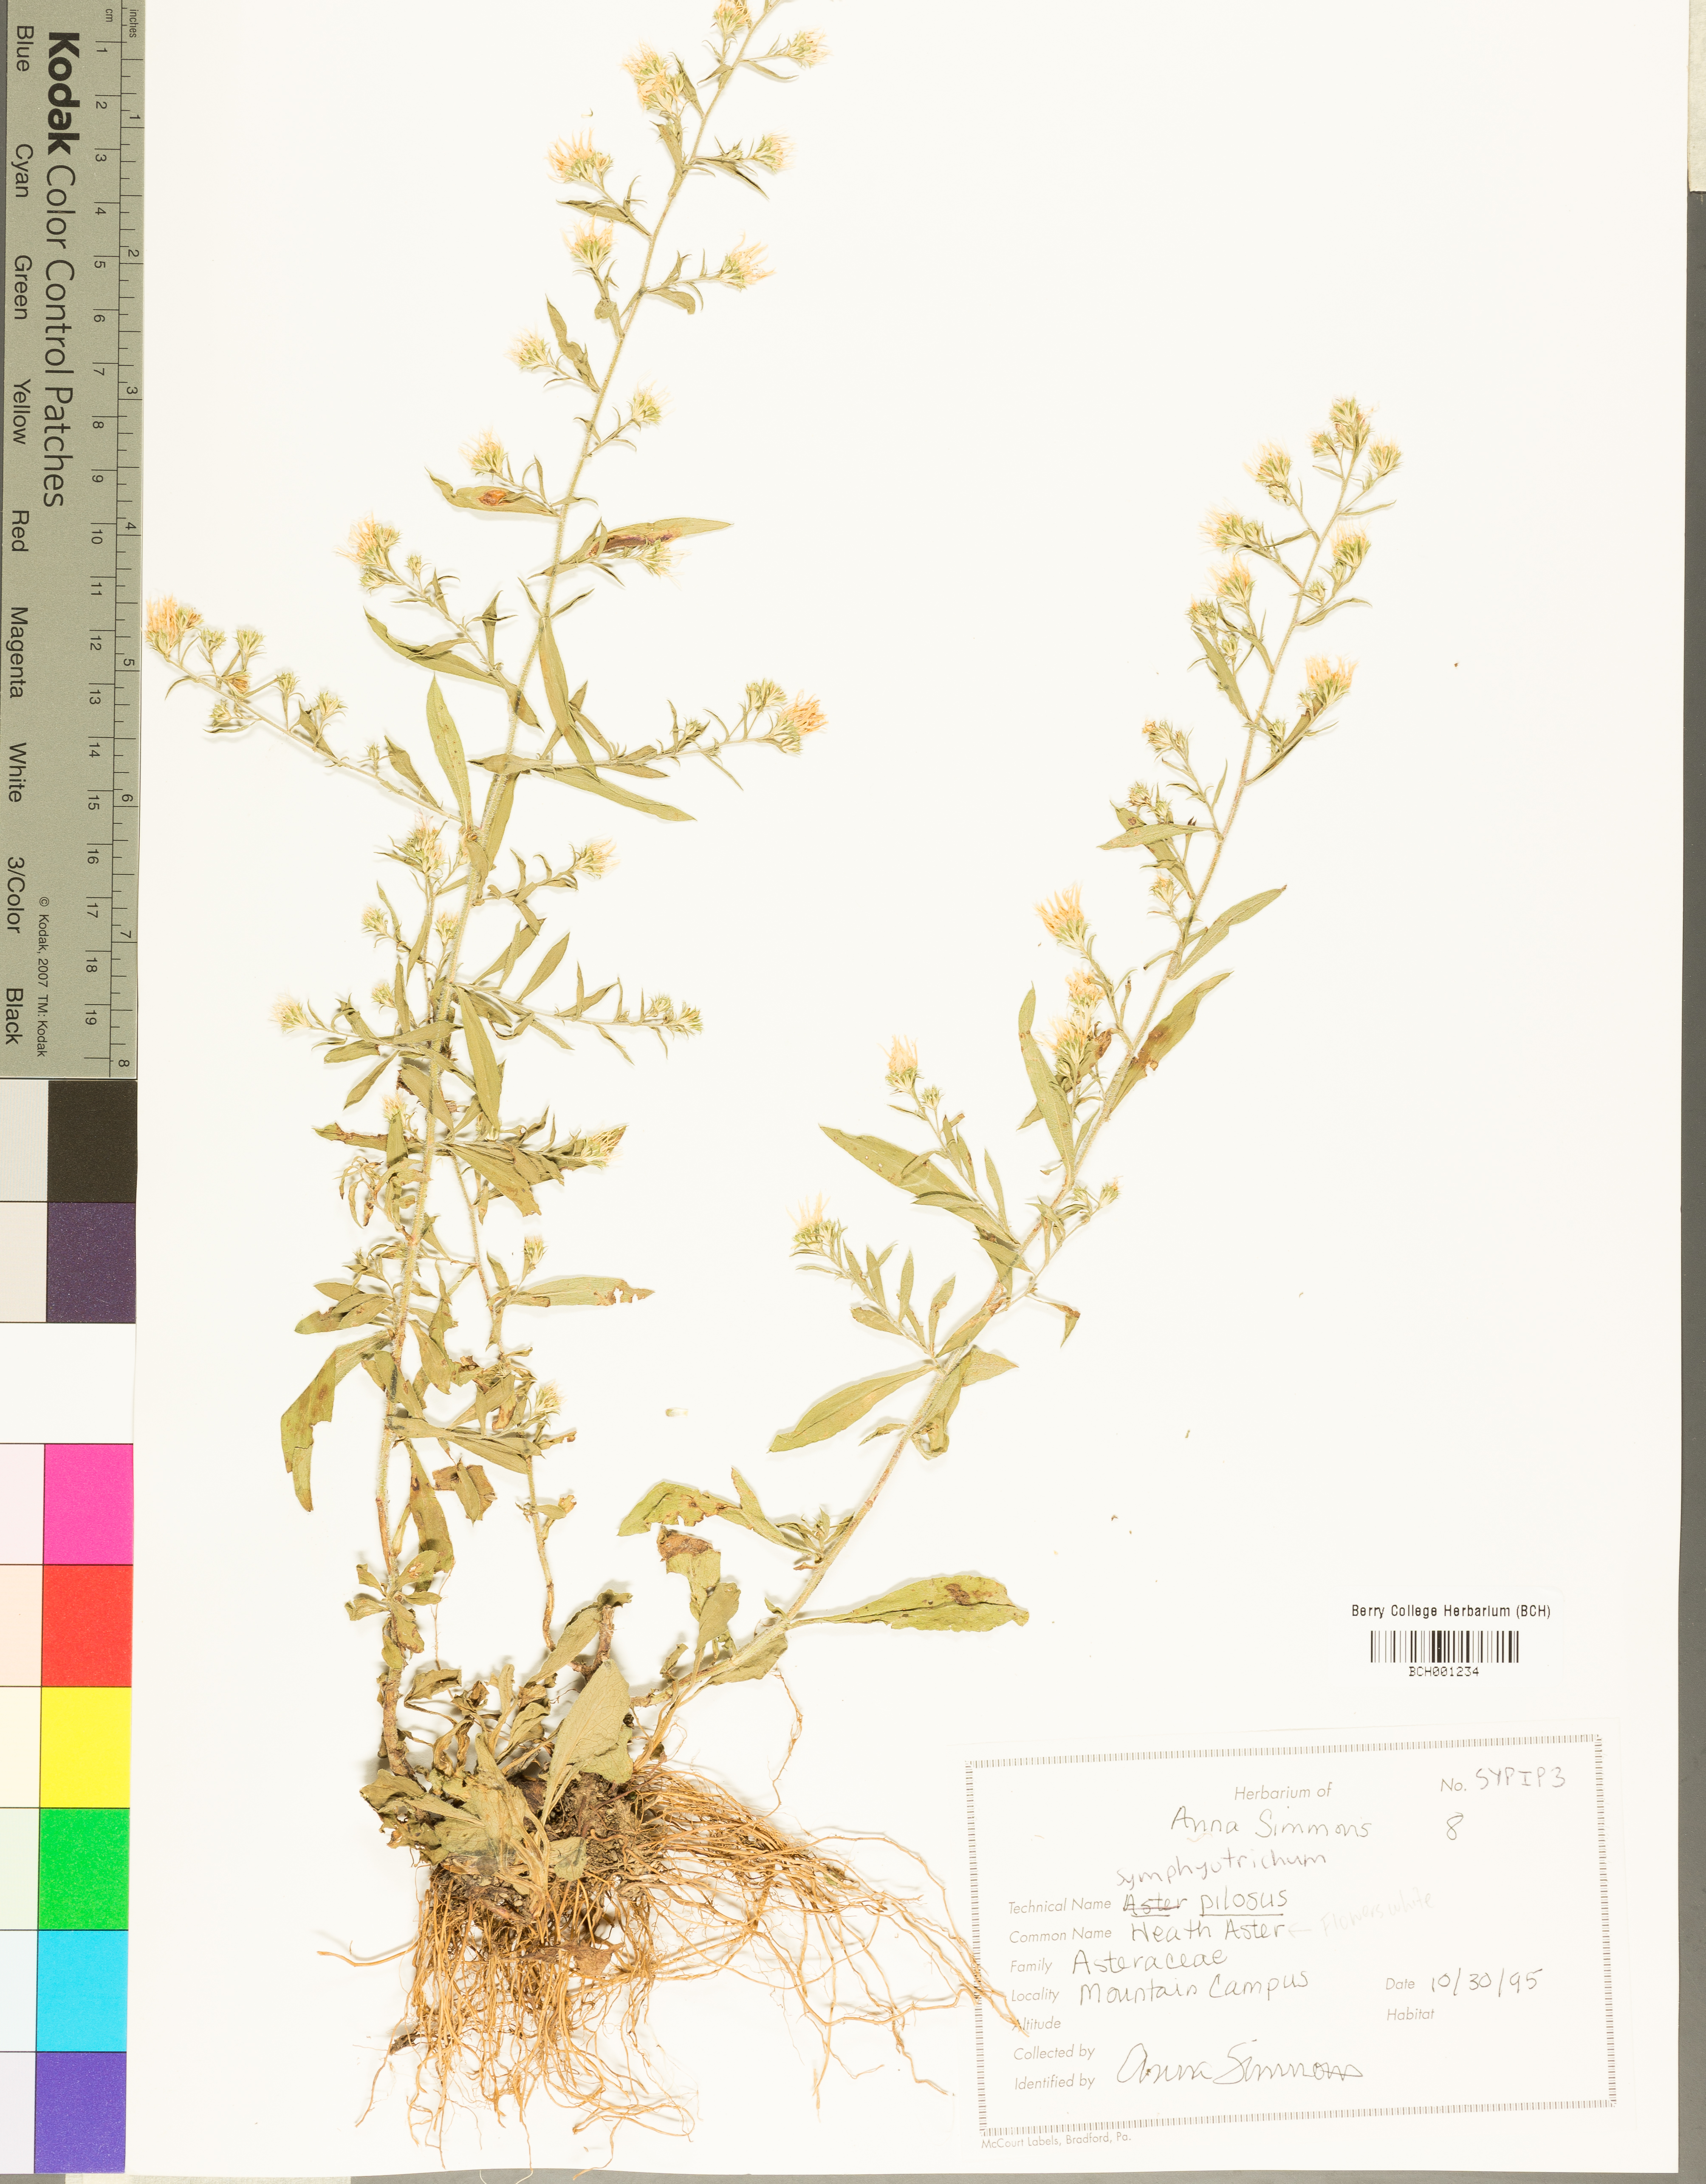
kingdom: Plantae
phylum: Tracheophyta
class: Magnoliopsida
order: Asterales
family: Asteraceae
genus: Symphyotrichum
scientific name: Symphyotrichum pilosum
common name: Awl aster
